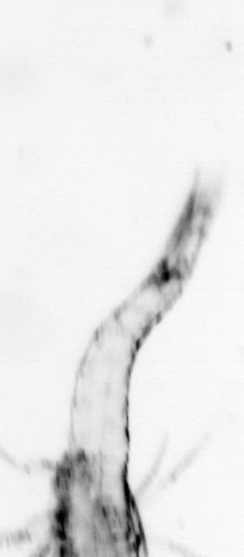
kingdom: Animalia
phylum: Arthropoda
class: Malacostraca
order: Decapoda
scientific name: Decapoda
